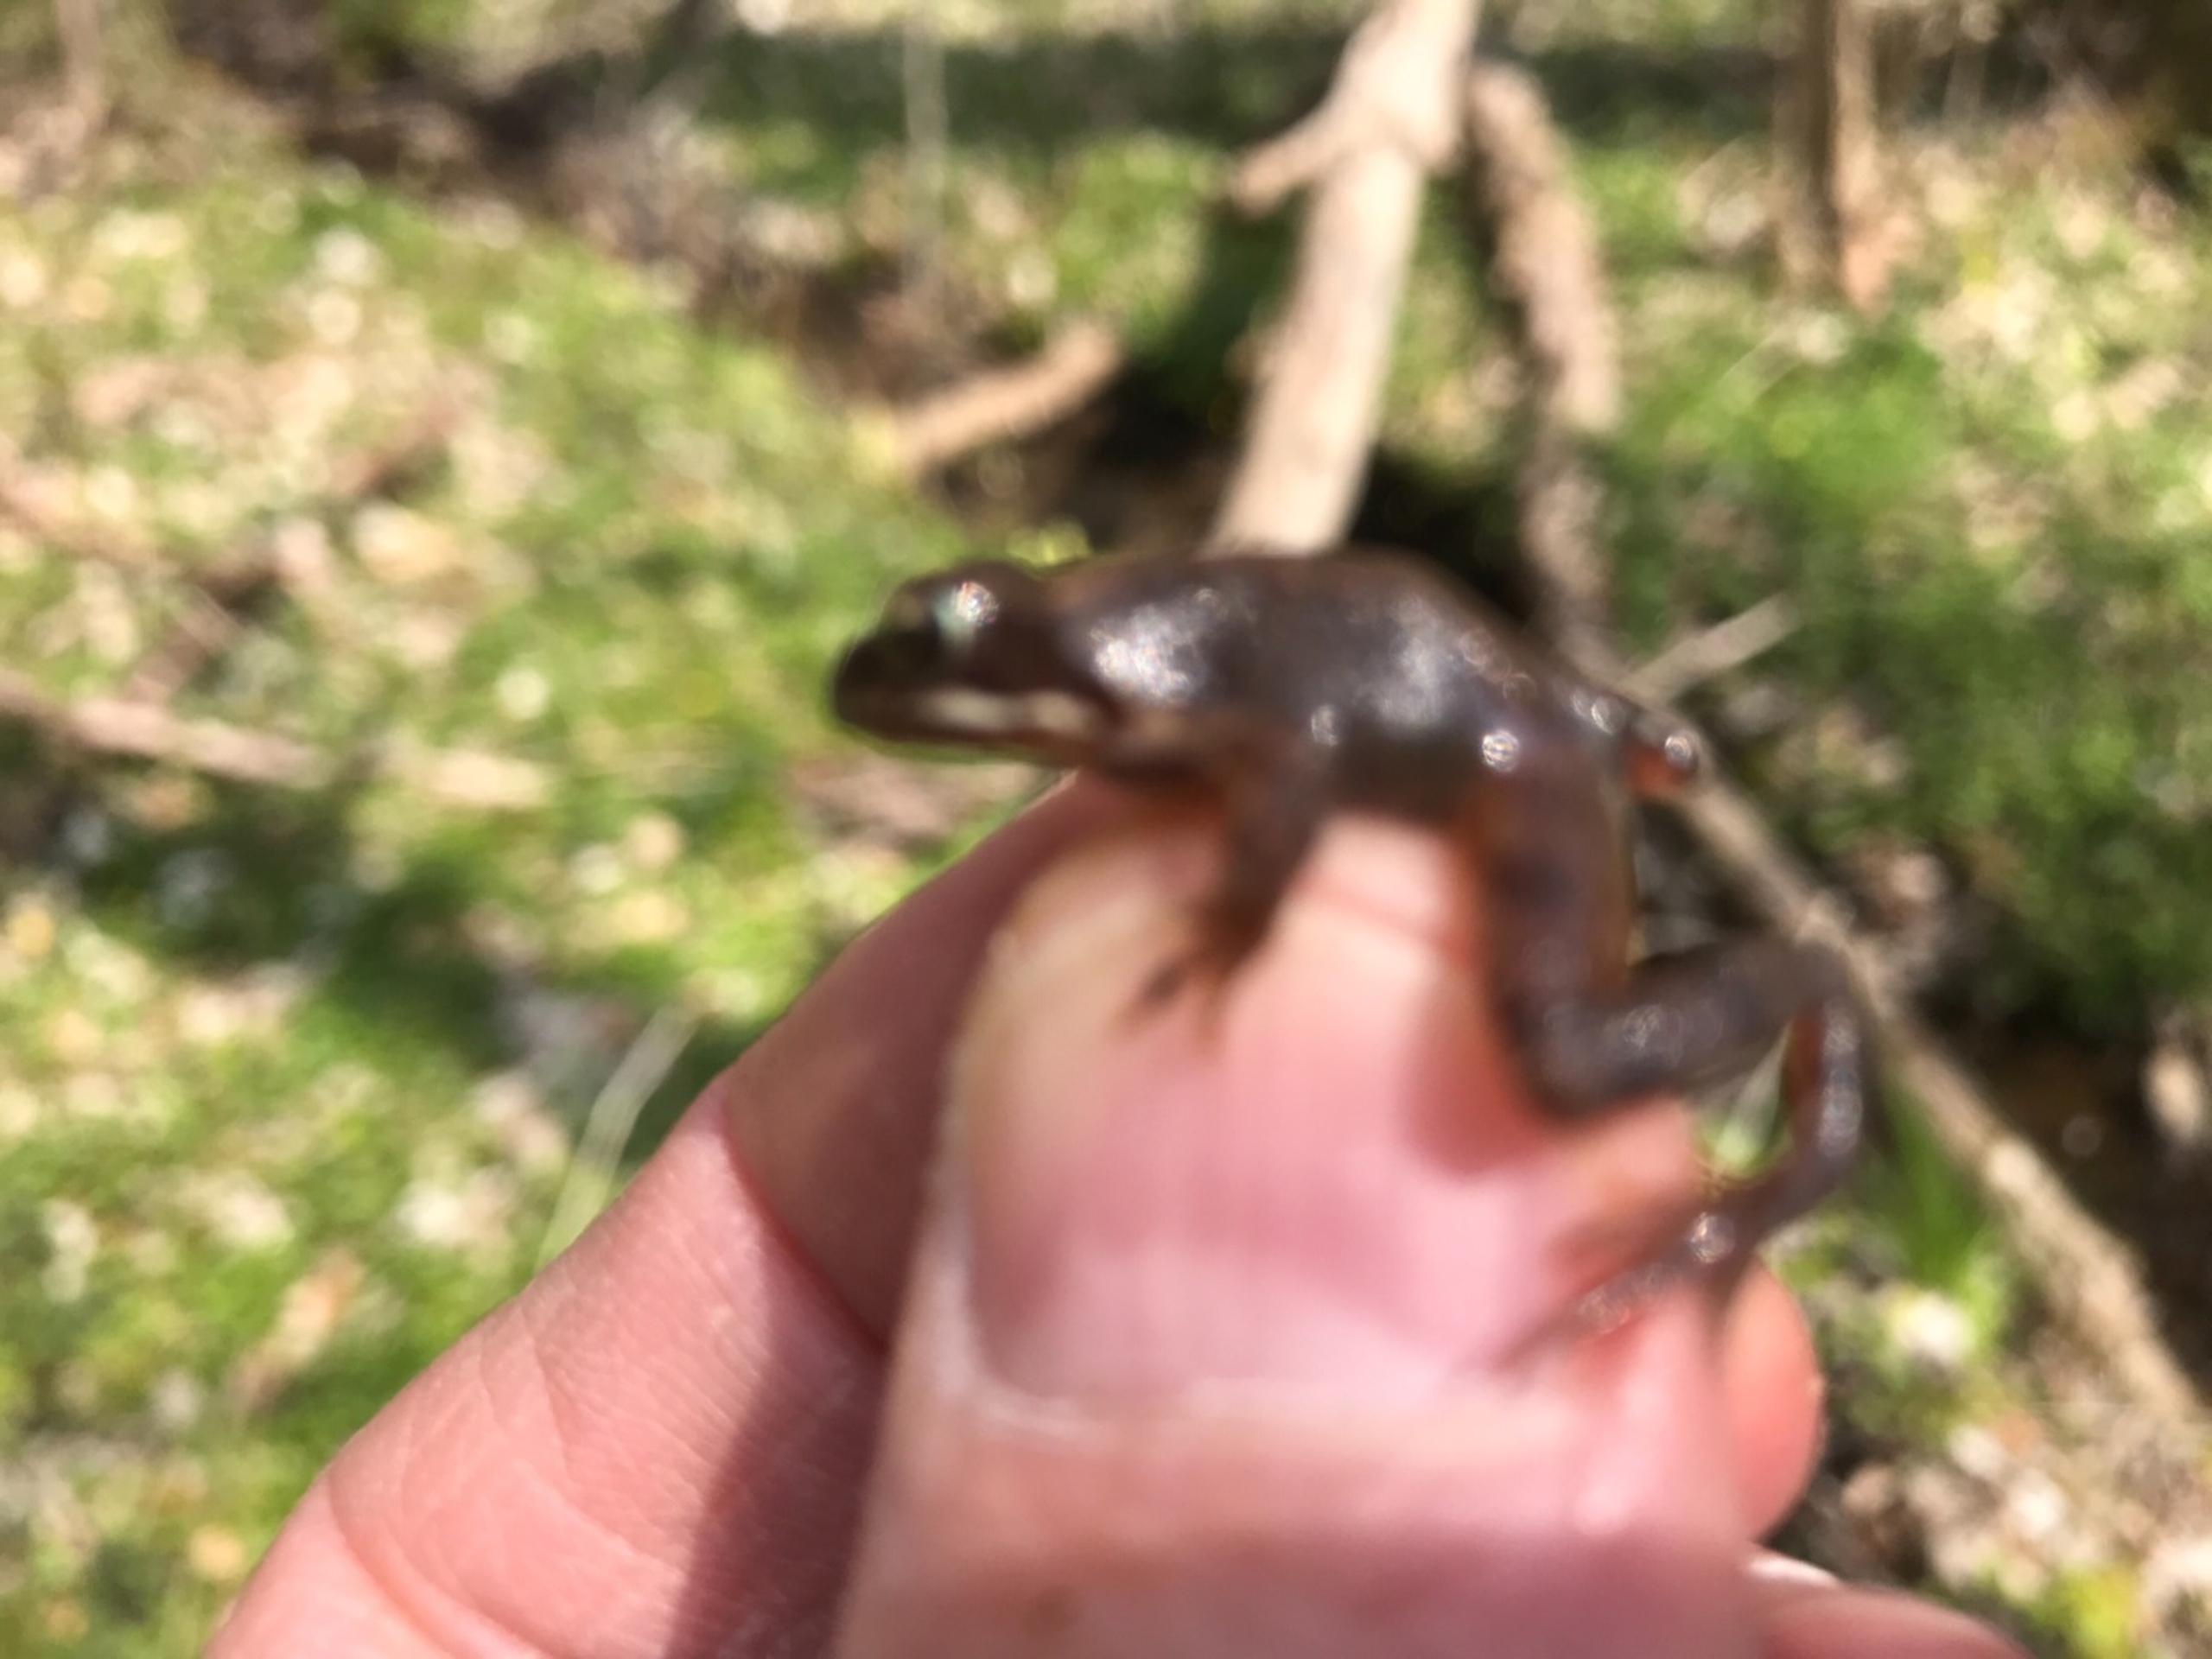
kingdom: Animalia
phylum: Chordata
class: Amphibia
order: Anura
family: Ranidae
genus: Rana
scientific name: Rana temporaria
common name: Butsnudet frø
